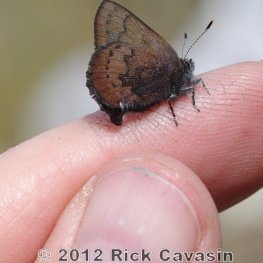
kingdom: Animalia
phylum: Arthropoda
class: Insecta
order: Lepidoptera
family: Lycaenidae
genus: Incisalia
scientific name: Incisalia irioides
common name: Brown Elfin
